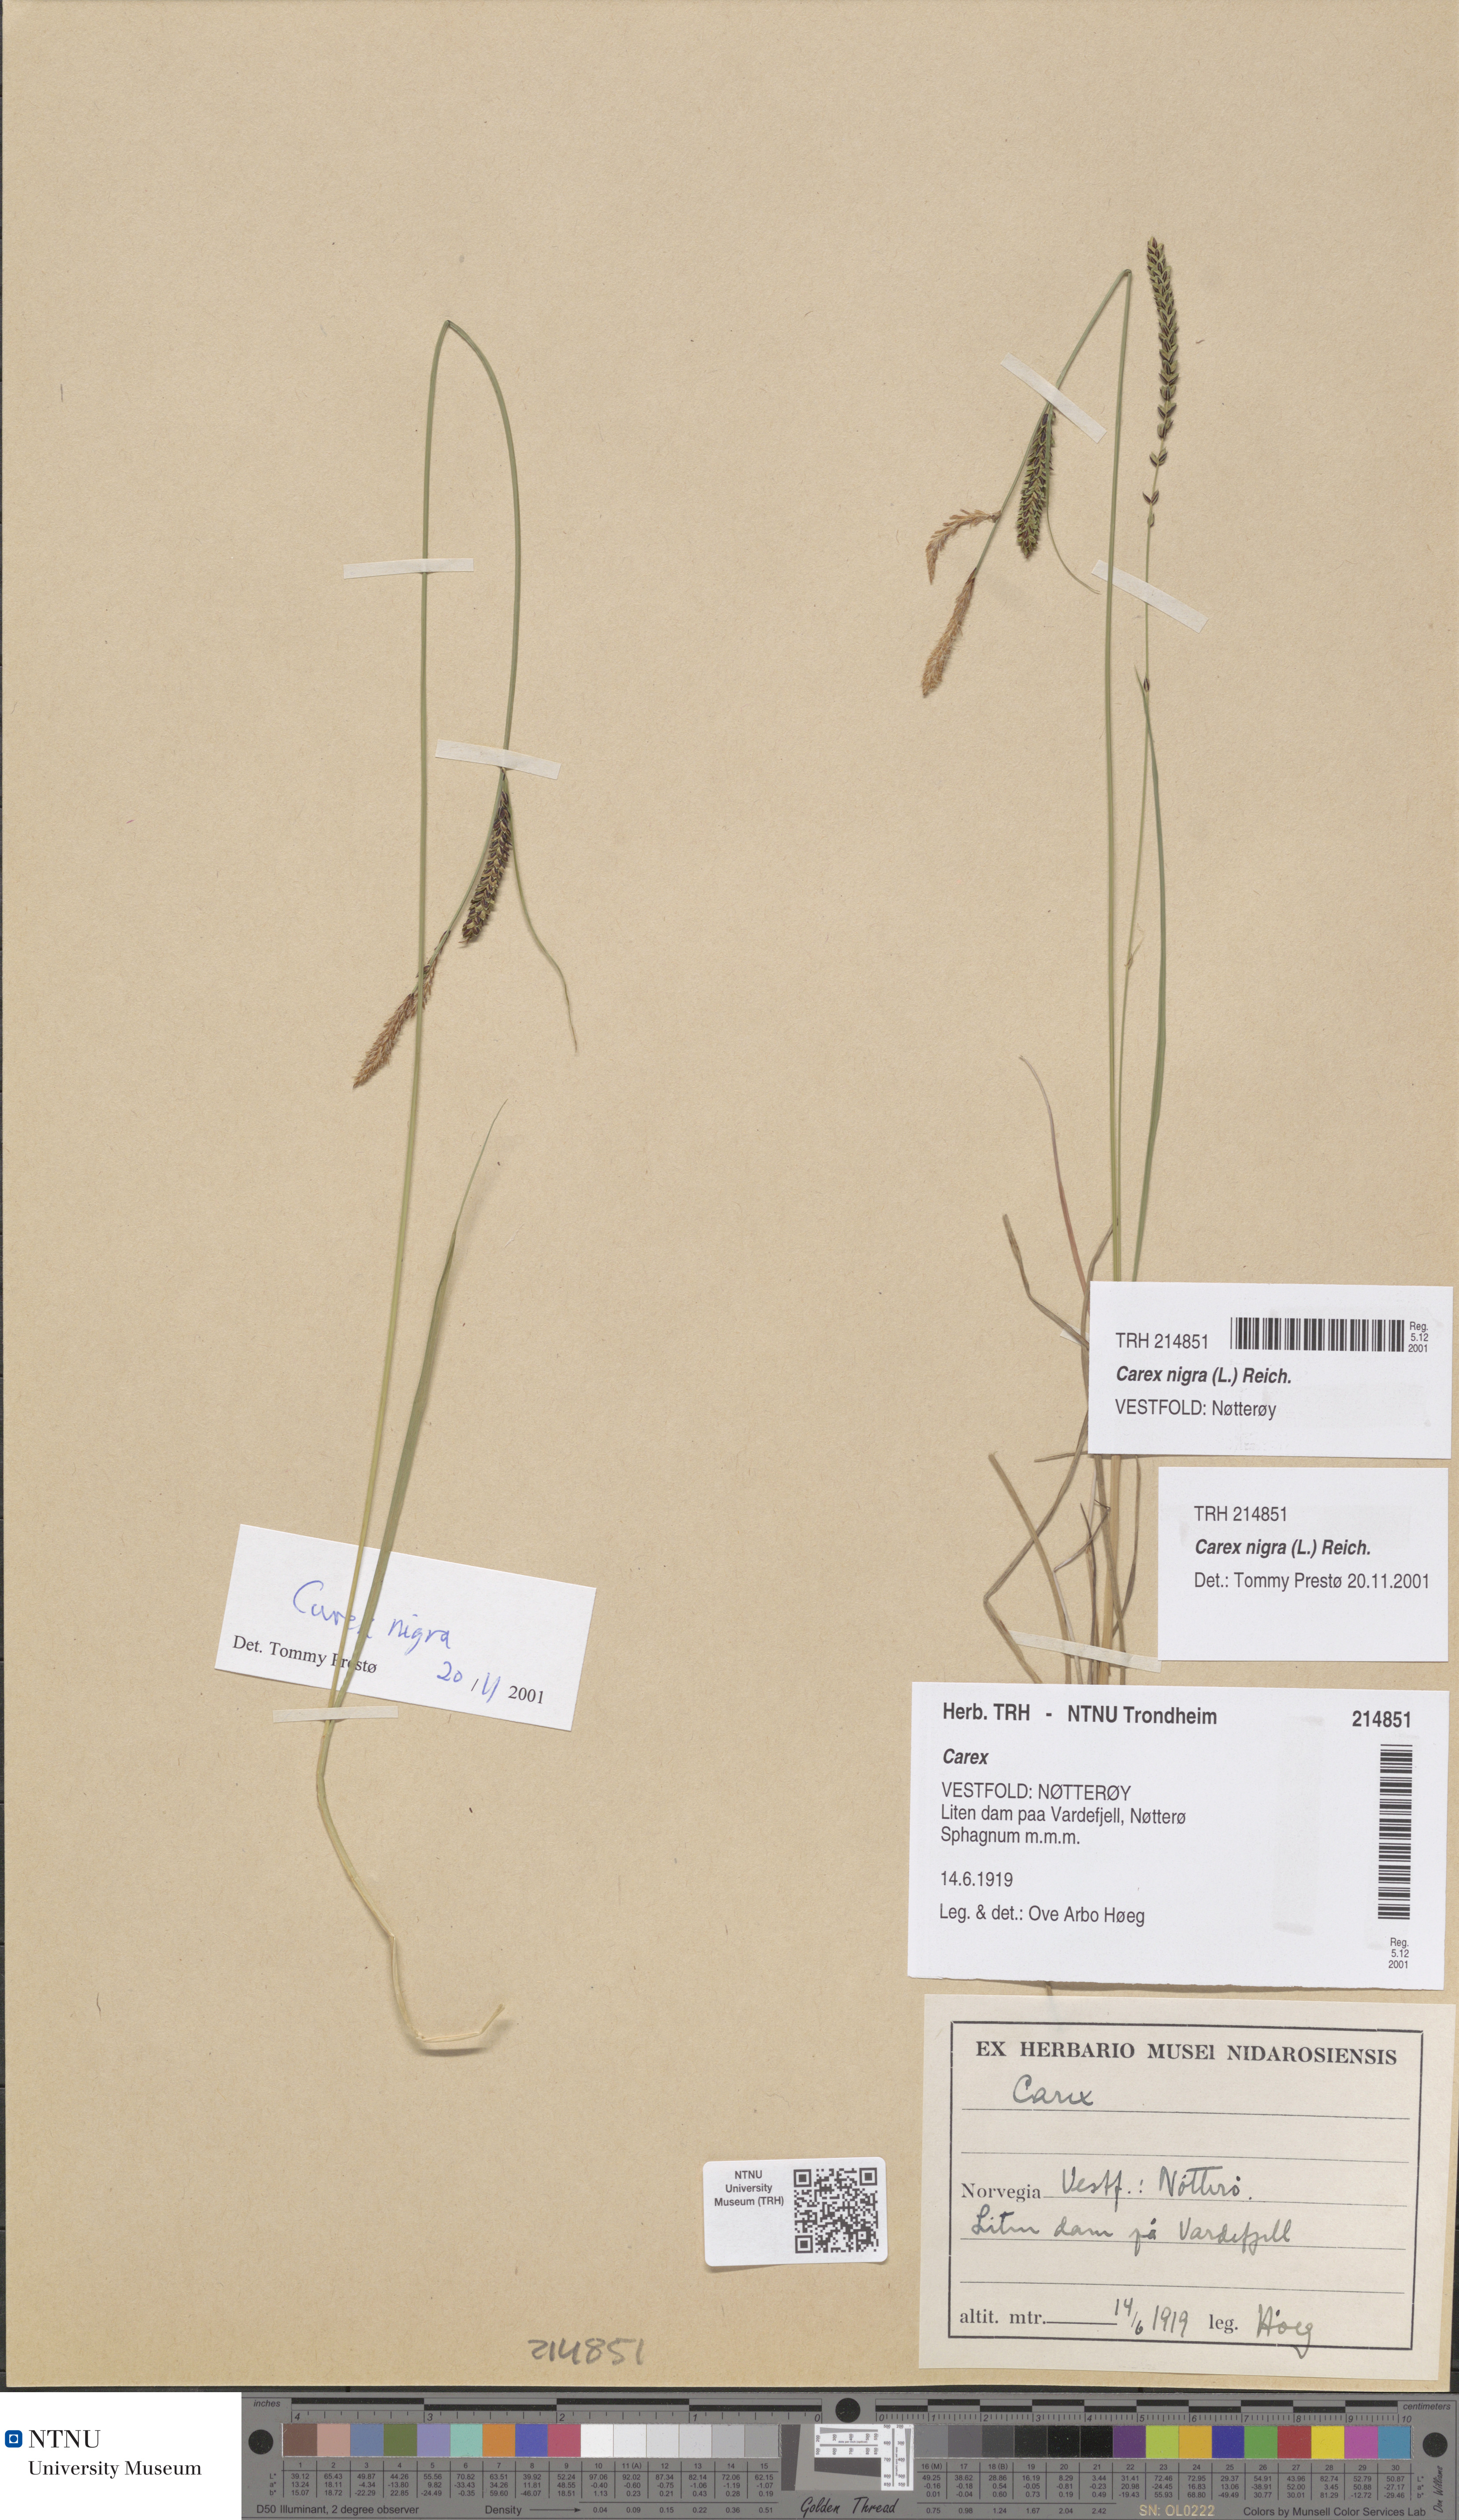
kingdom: Plantae
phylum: Tracheophyta
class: Liliopsida
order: Poales
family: Cyperaceae
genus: Carex
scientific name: Carex nigra
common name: Common sedge
